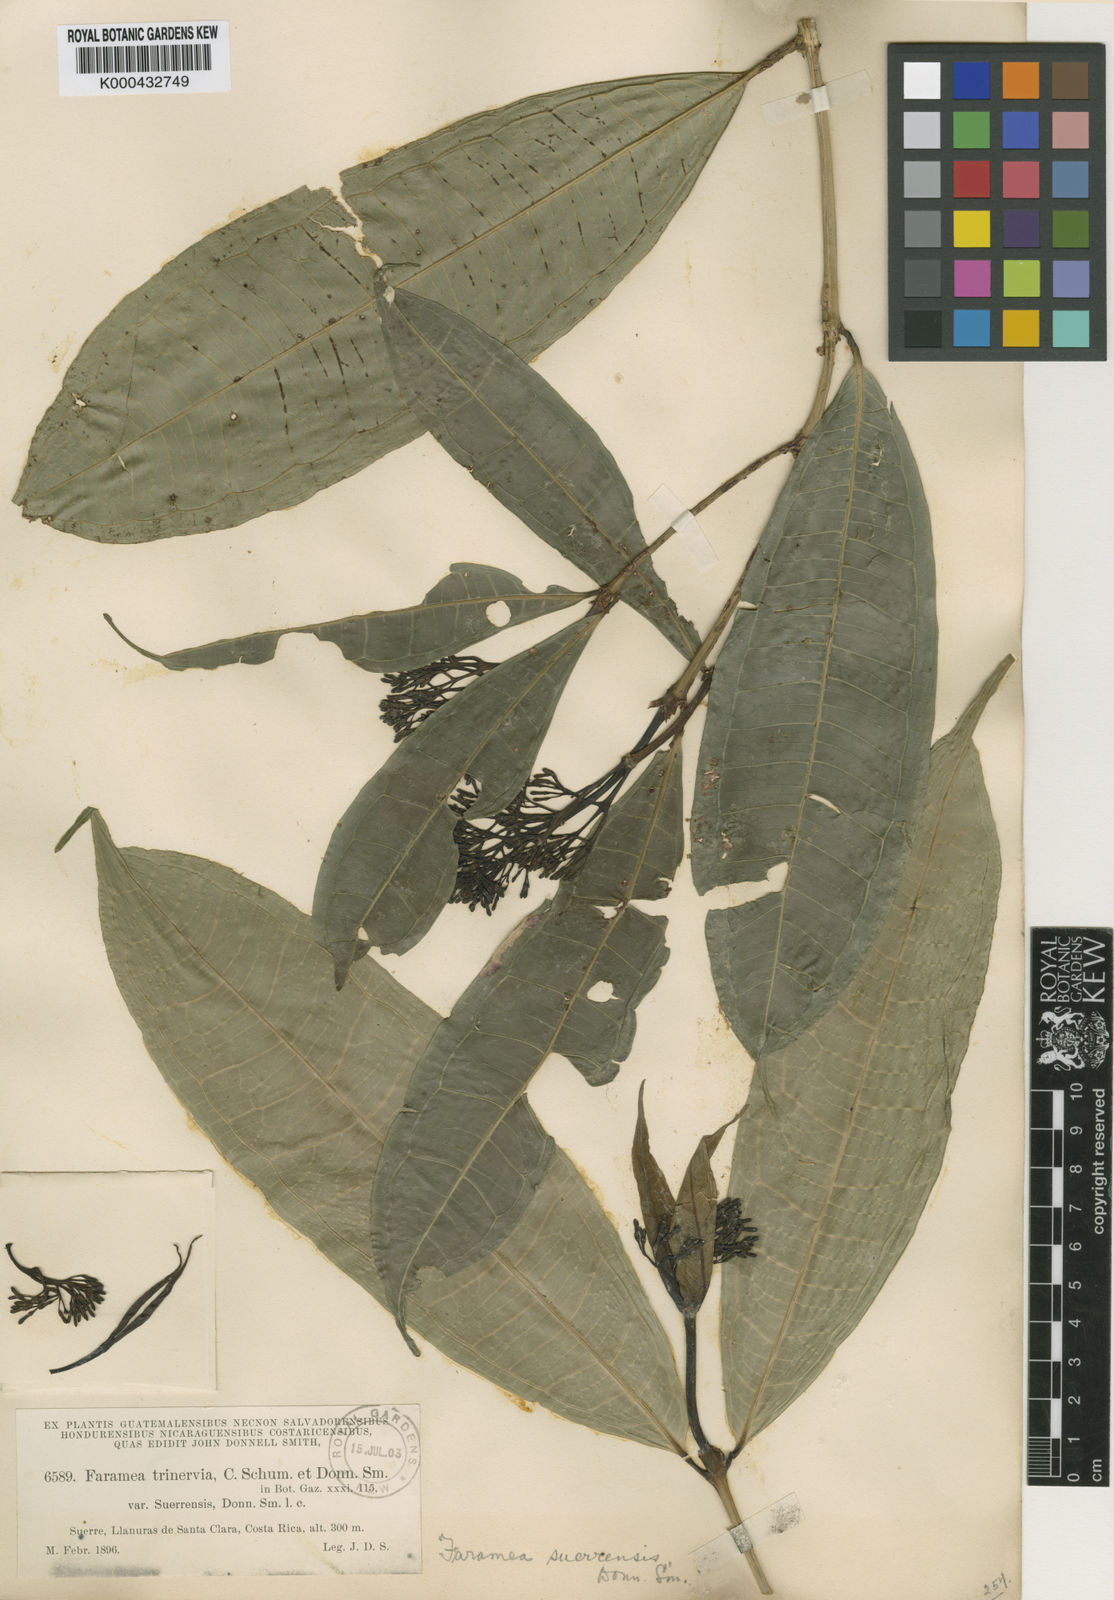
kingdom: Plantae
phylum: Tracheophyta
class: Magnoliopsida
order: Gentianales
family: Rubiaceae
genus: Faramea
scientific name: Faramea suerrensis
